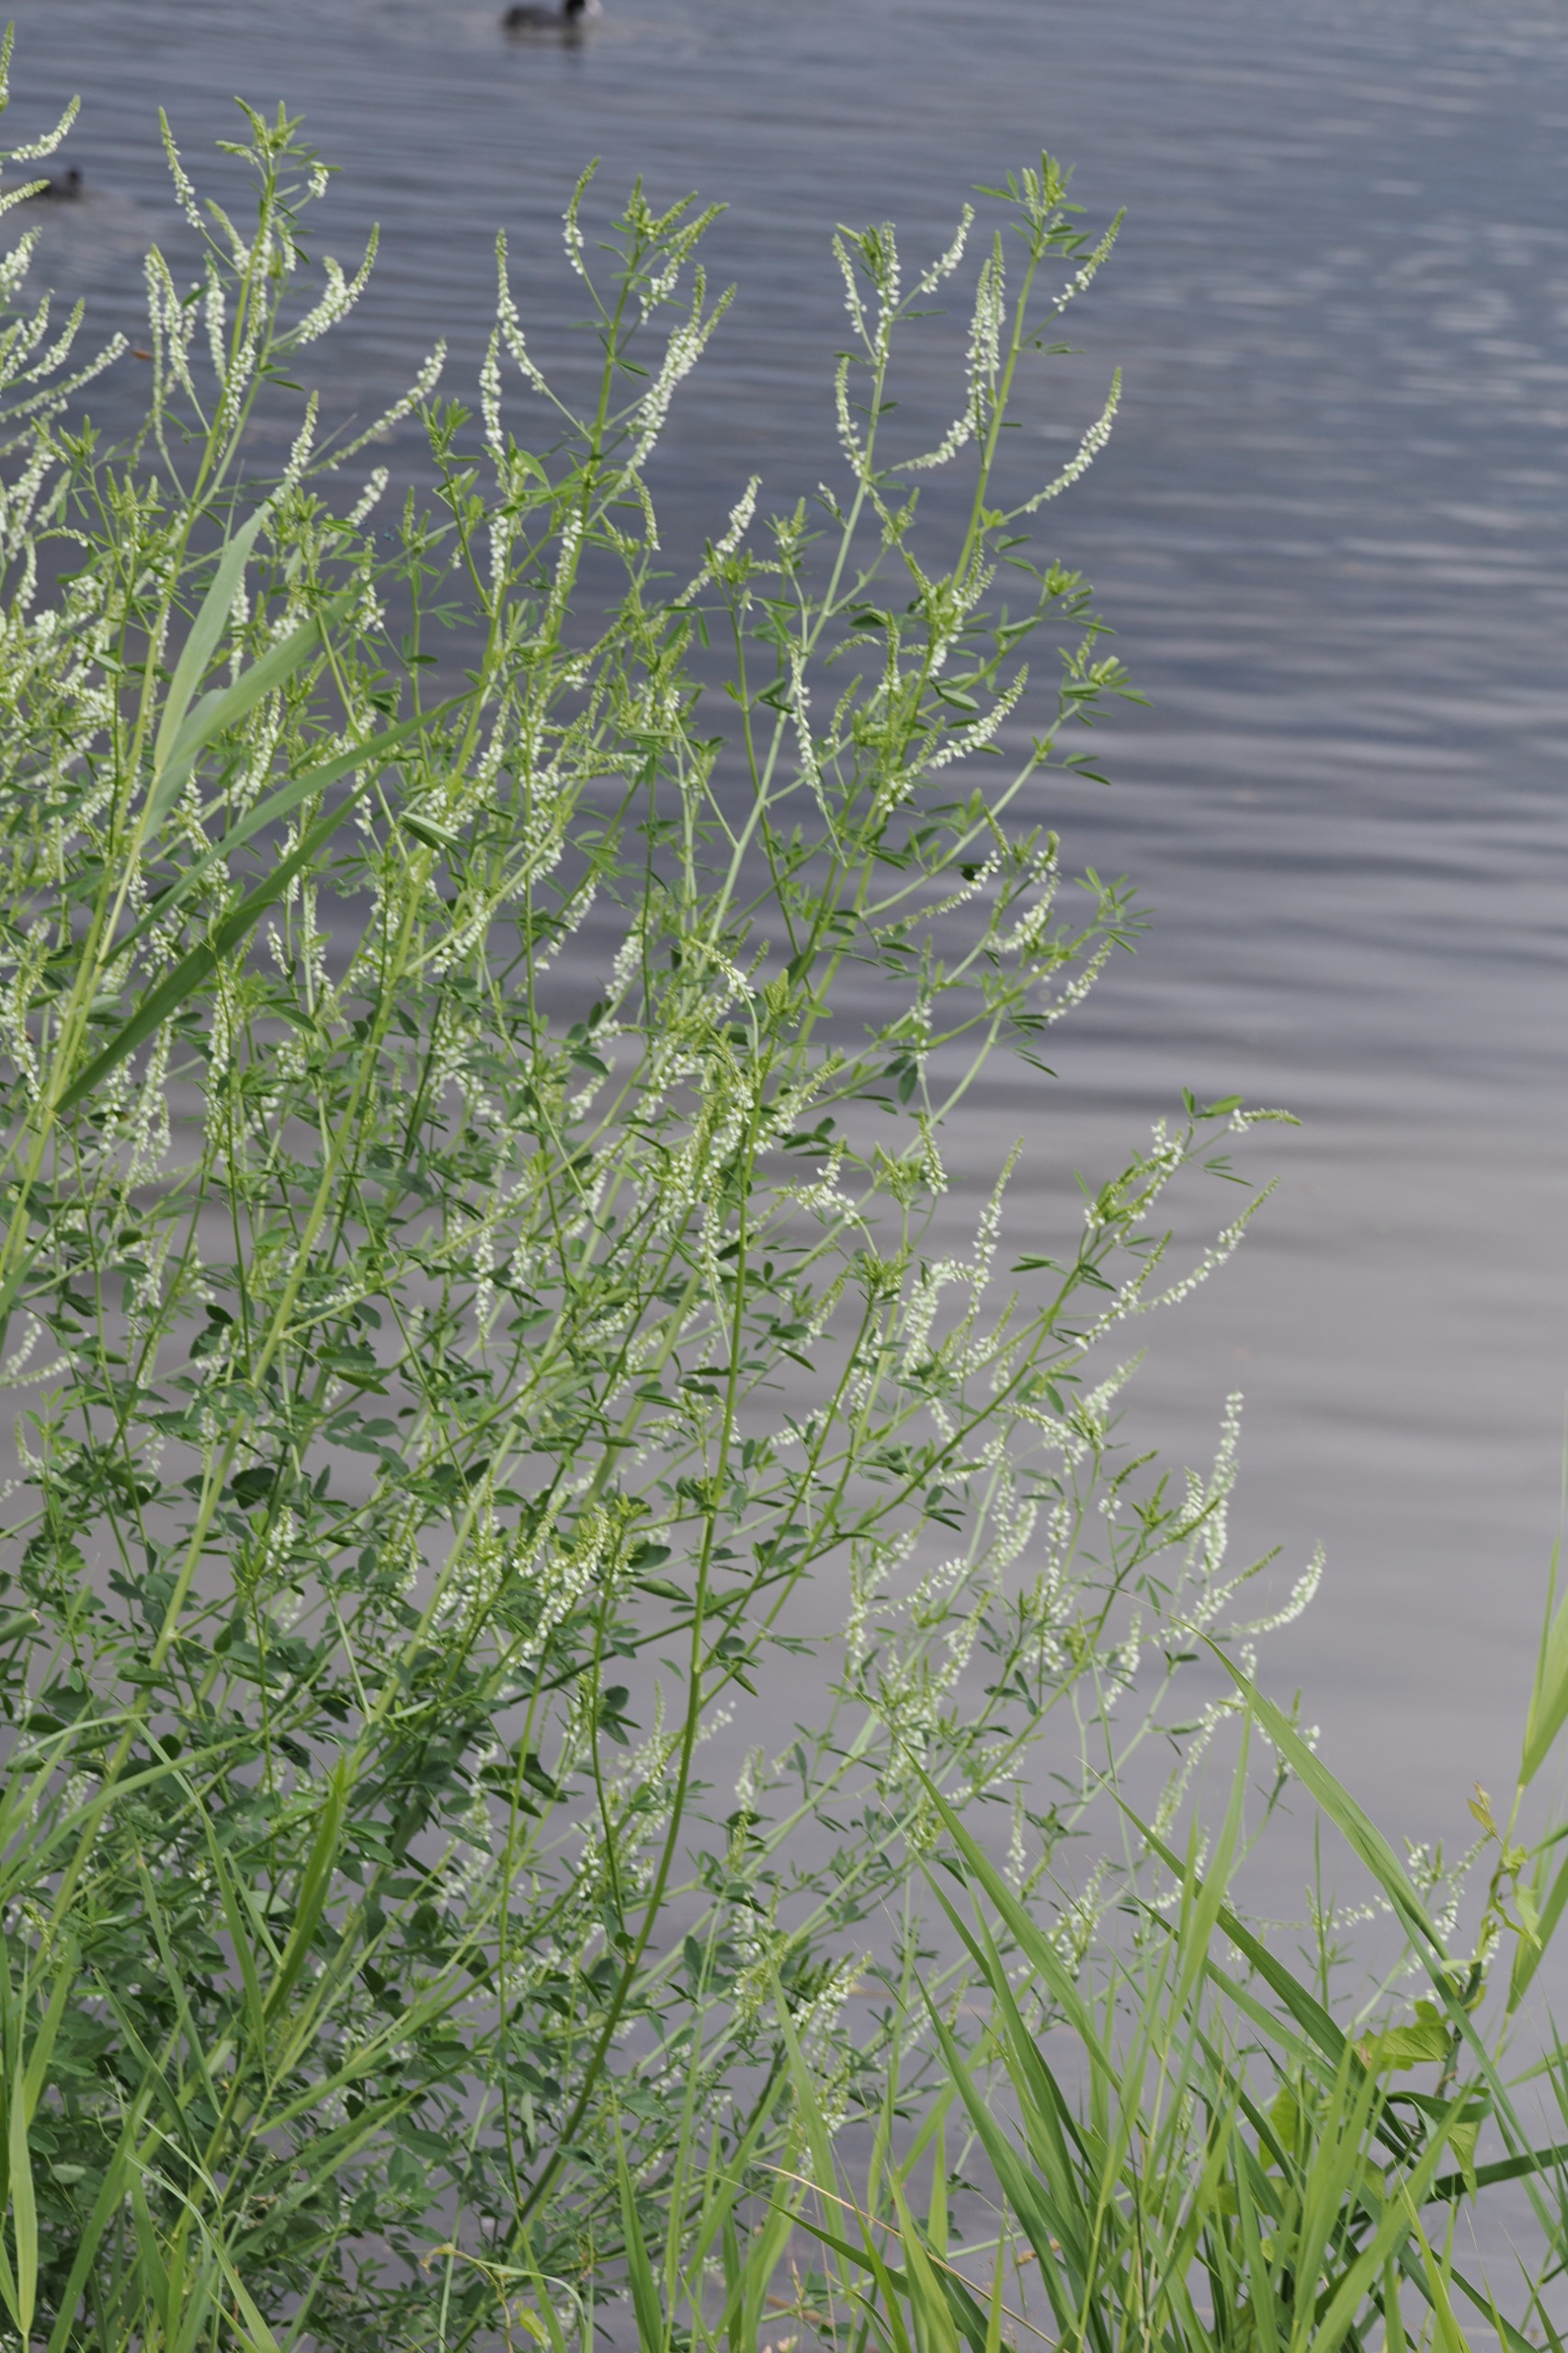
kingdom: Plantae
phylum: Tracheophyta
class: Magnoliopsida
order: Fabales
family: Fabaceae
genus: Melilotus
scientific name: Melilotus albus
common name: Hvid stenkløver
